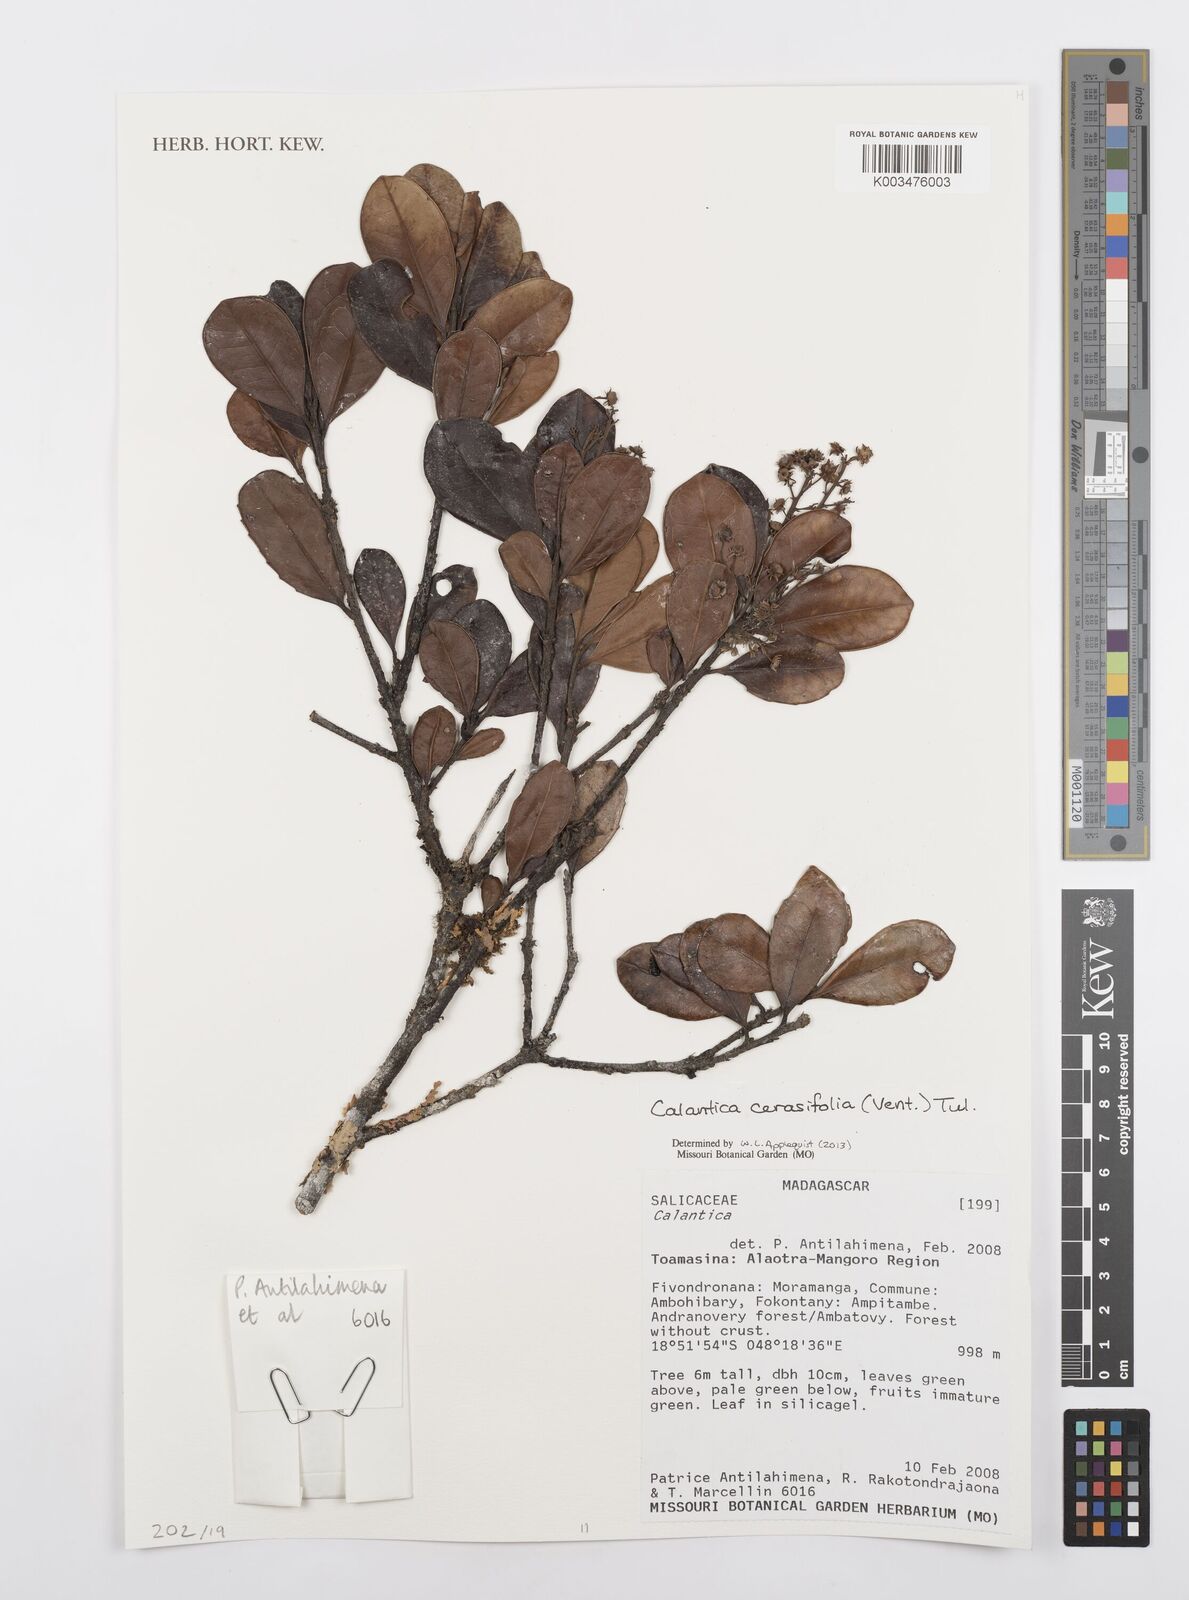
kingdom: Plantae
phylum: Tracheophyta
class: Magnoliopsida
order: Malpighiales
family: Salicaceae
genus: Calantica
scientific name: Calantica cerasifolia
